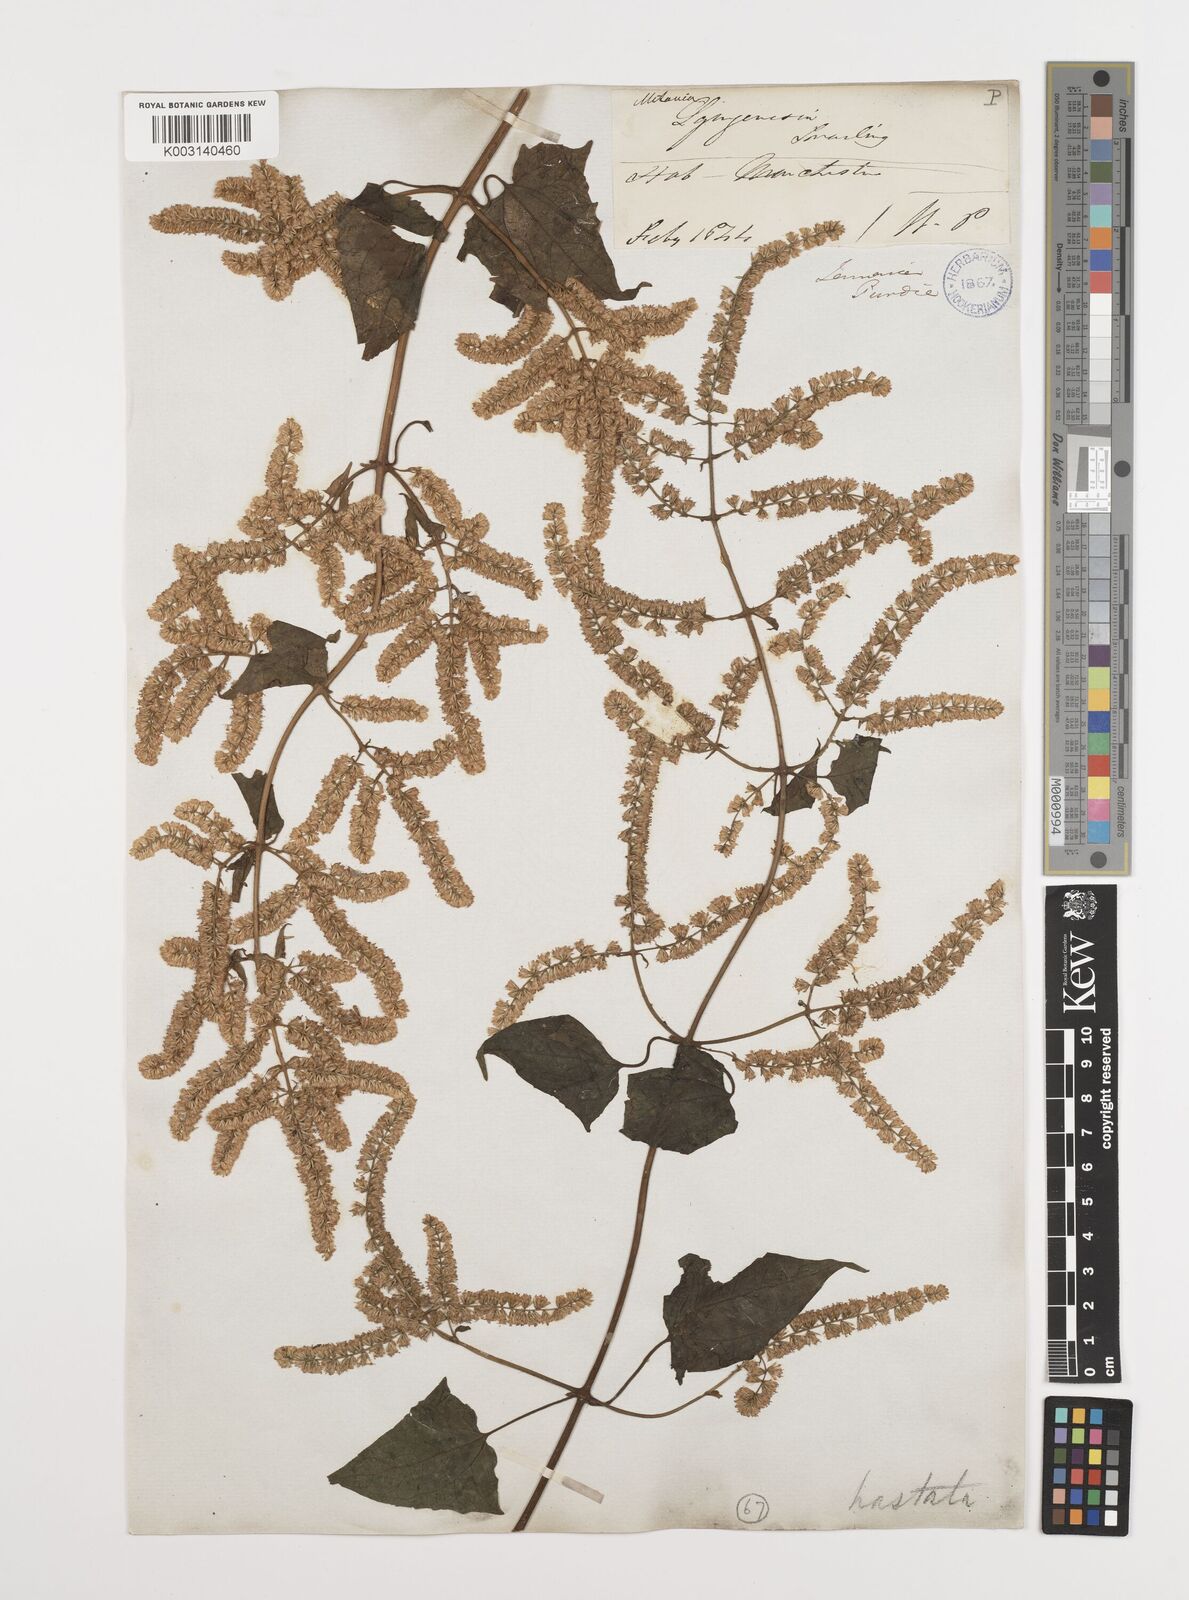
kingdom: Plantae
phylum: Tracheophyta
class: Magnoliopsida
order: Asterales
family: Asteraceae
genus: Mikania
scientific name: Mikania hastata
